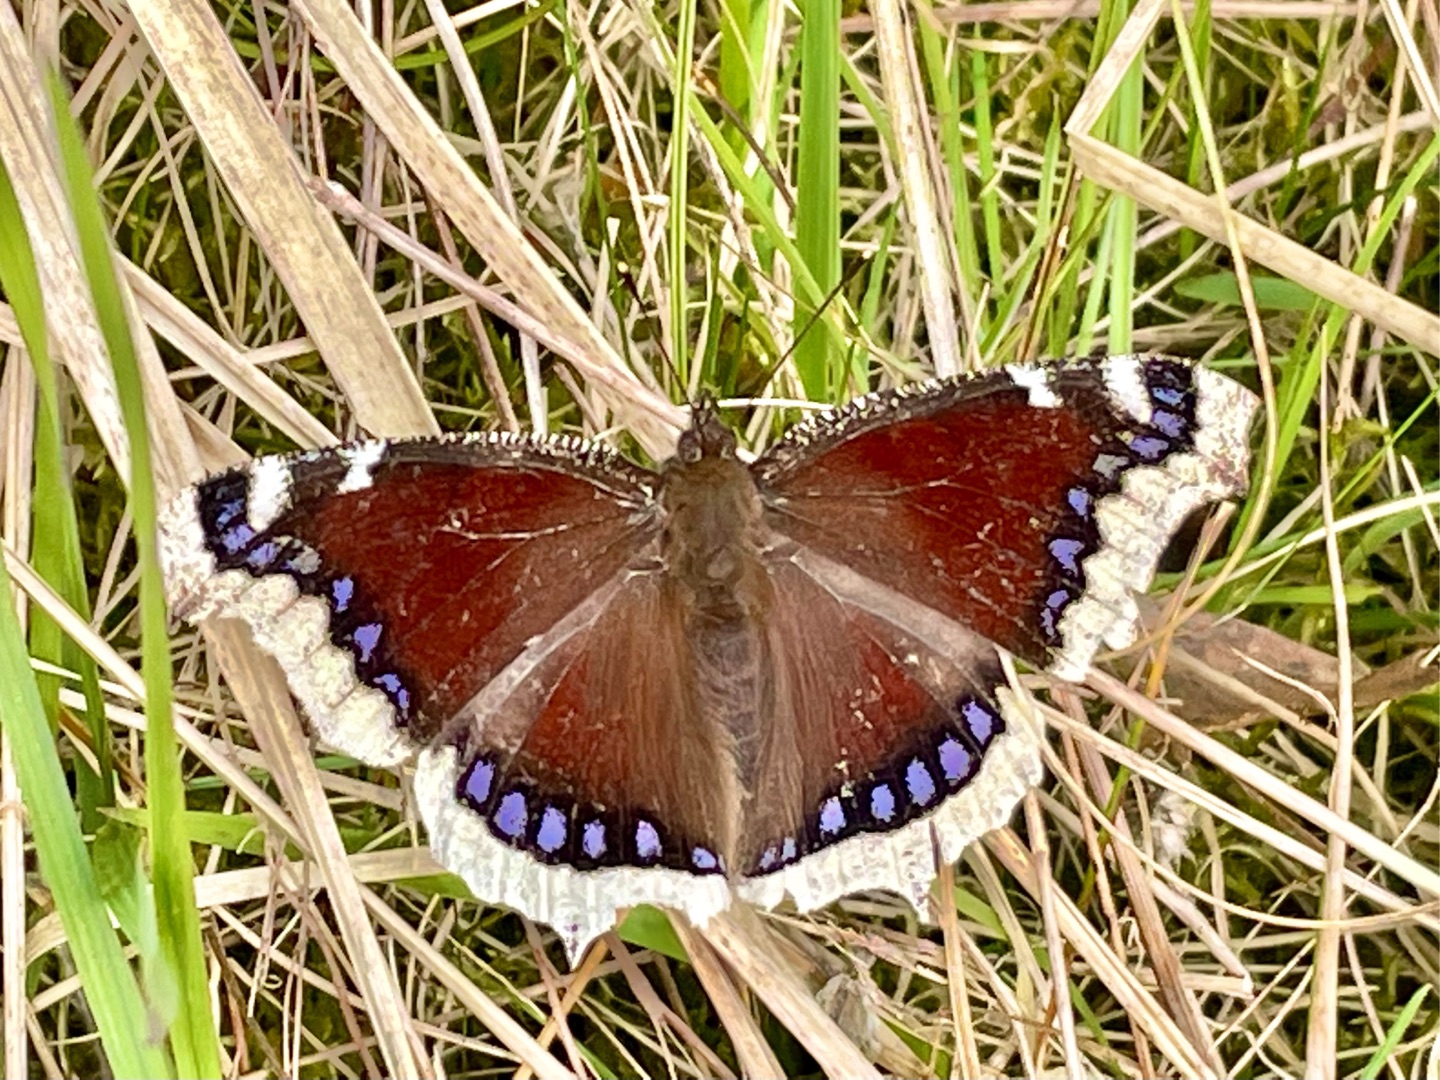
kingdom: Animalia
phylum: Arthropoda
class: Insecta
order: Lepidoptera
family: Nymphalidae
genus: Nymphalis
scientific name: Nymphalis antiopa
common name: Sørgekåbe
